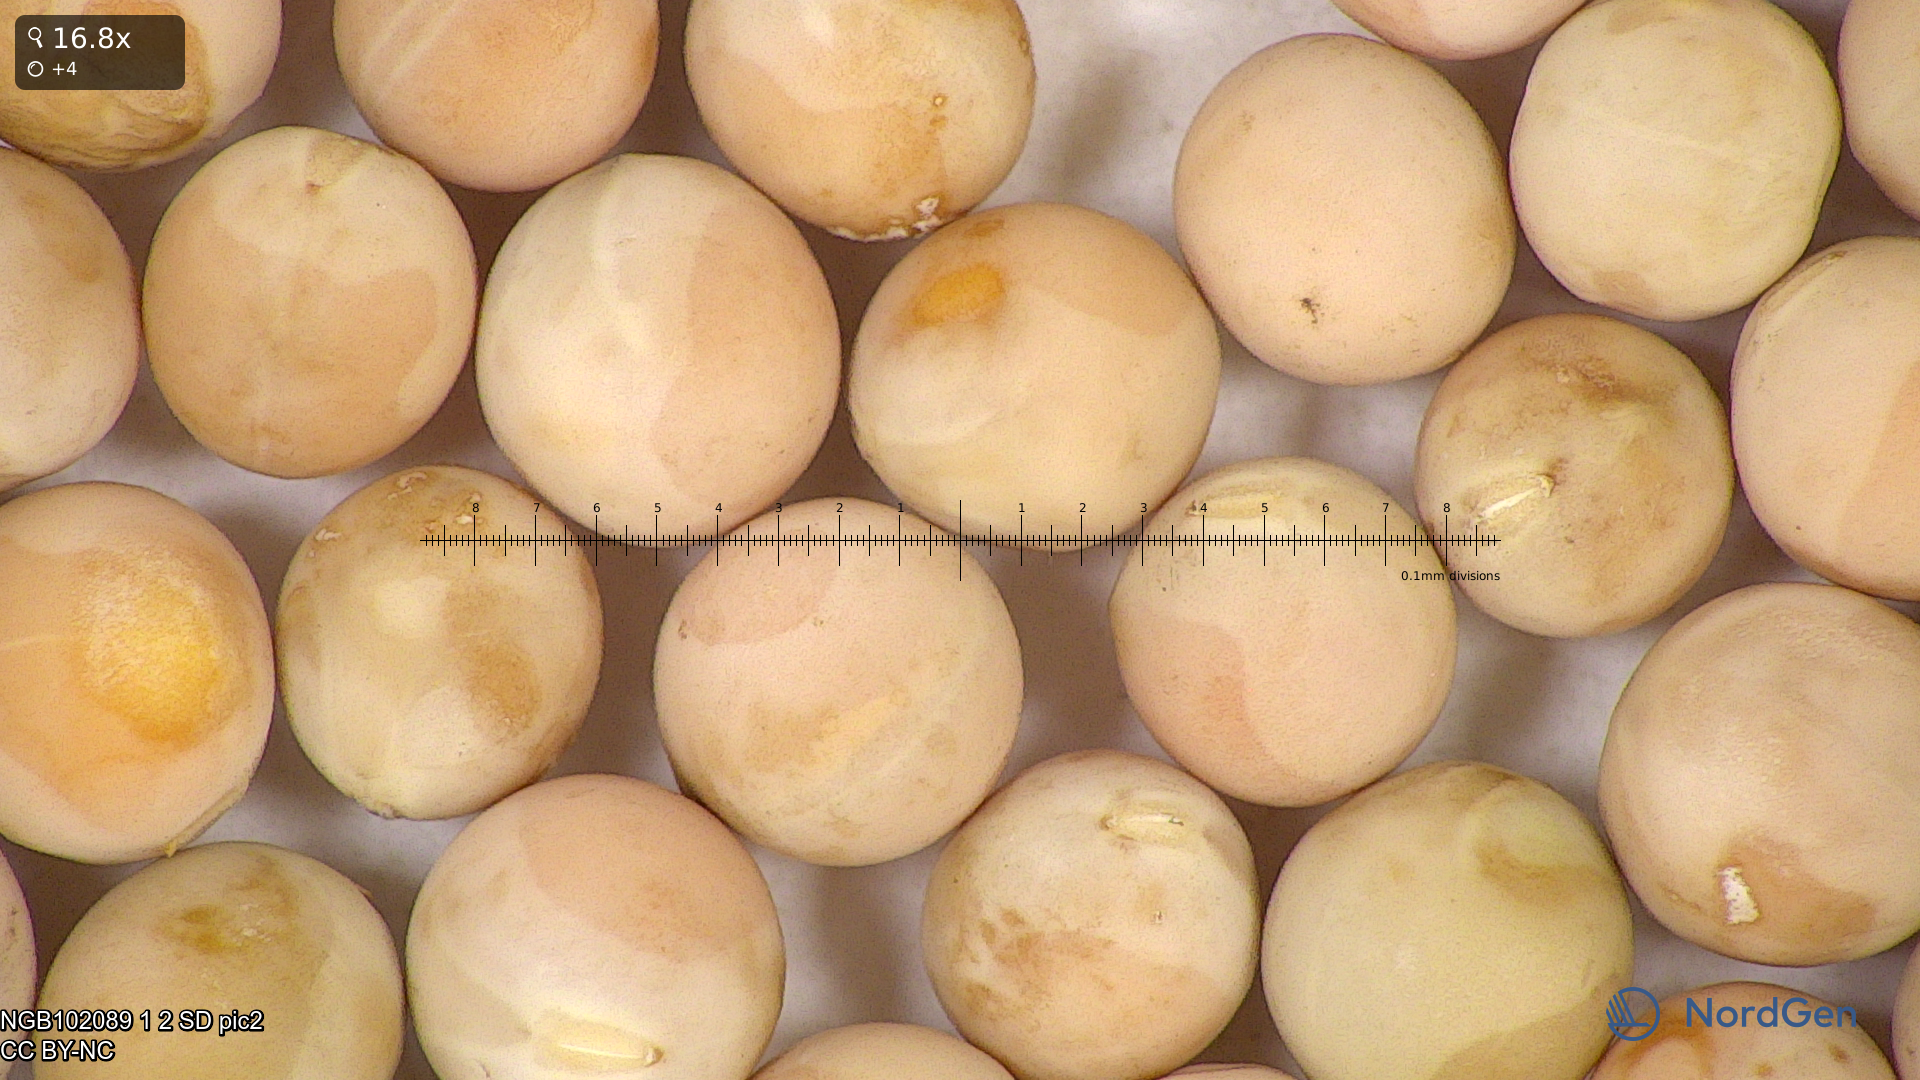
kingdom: Plantae
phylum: Tracheophyta
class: Magnoliopsida
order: Fabales
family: Fabaceae
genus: Lathyrus
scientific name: Lathyrus oleraceus
